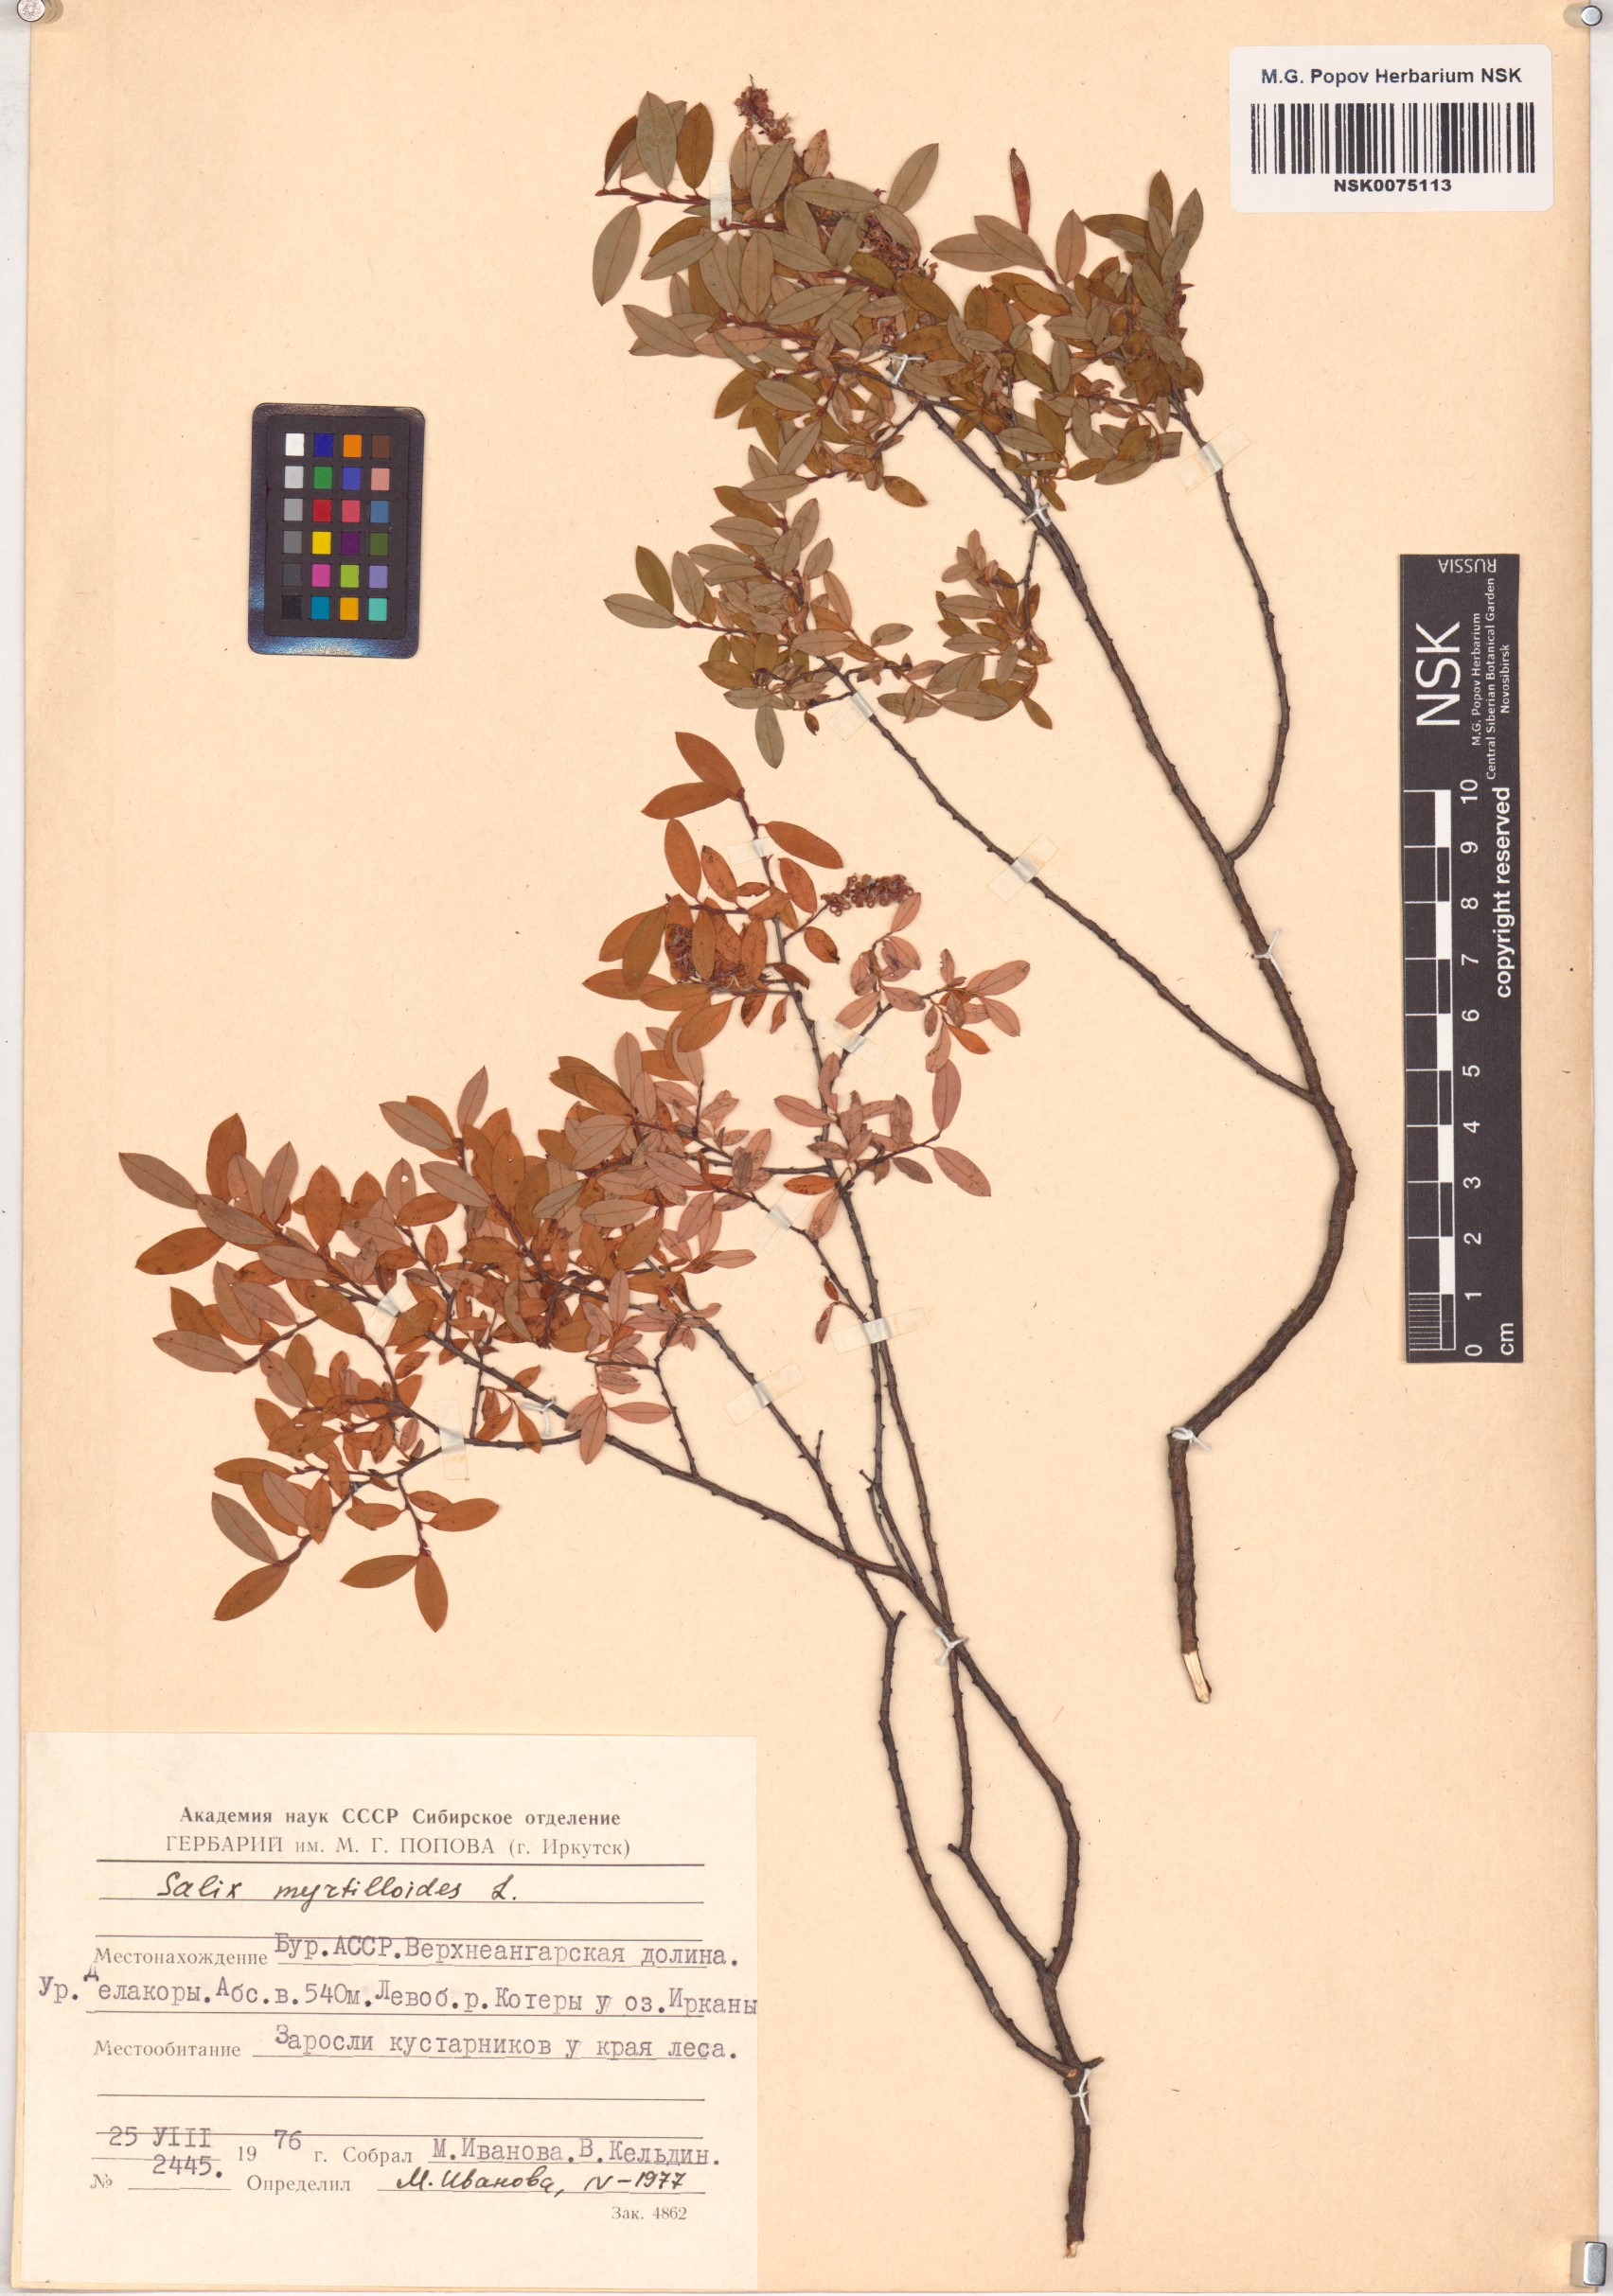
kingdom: Plantae
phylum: Tracheophyta
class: Magnoliopsida
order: Malpighiales
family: Salicaceae
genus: Salix
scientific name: Salix myrtilloides
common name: Myrtle-leaved willow
